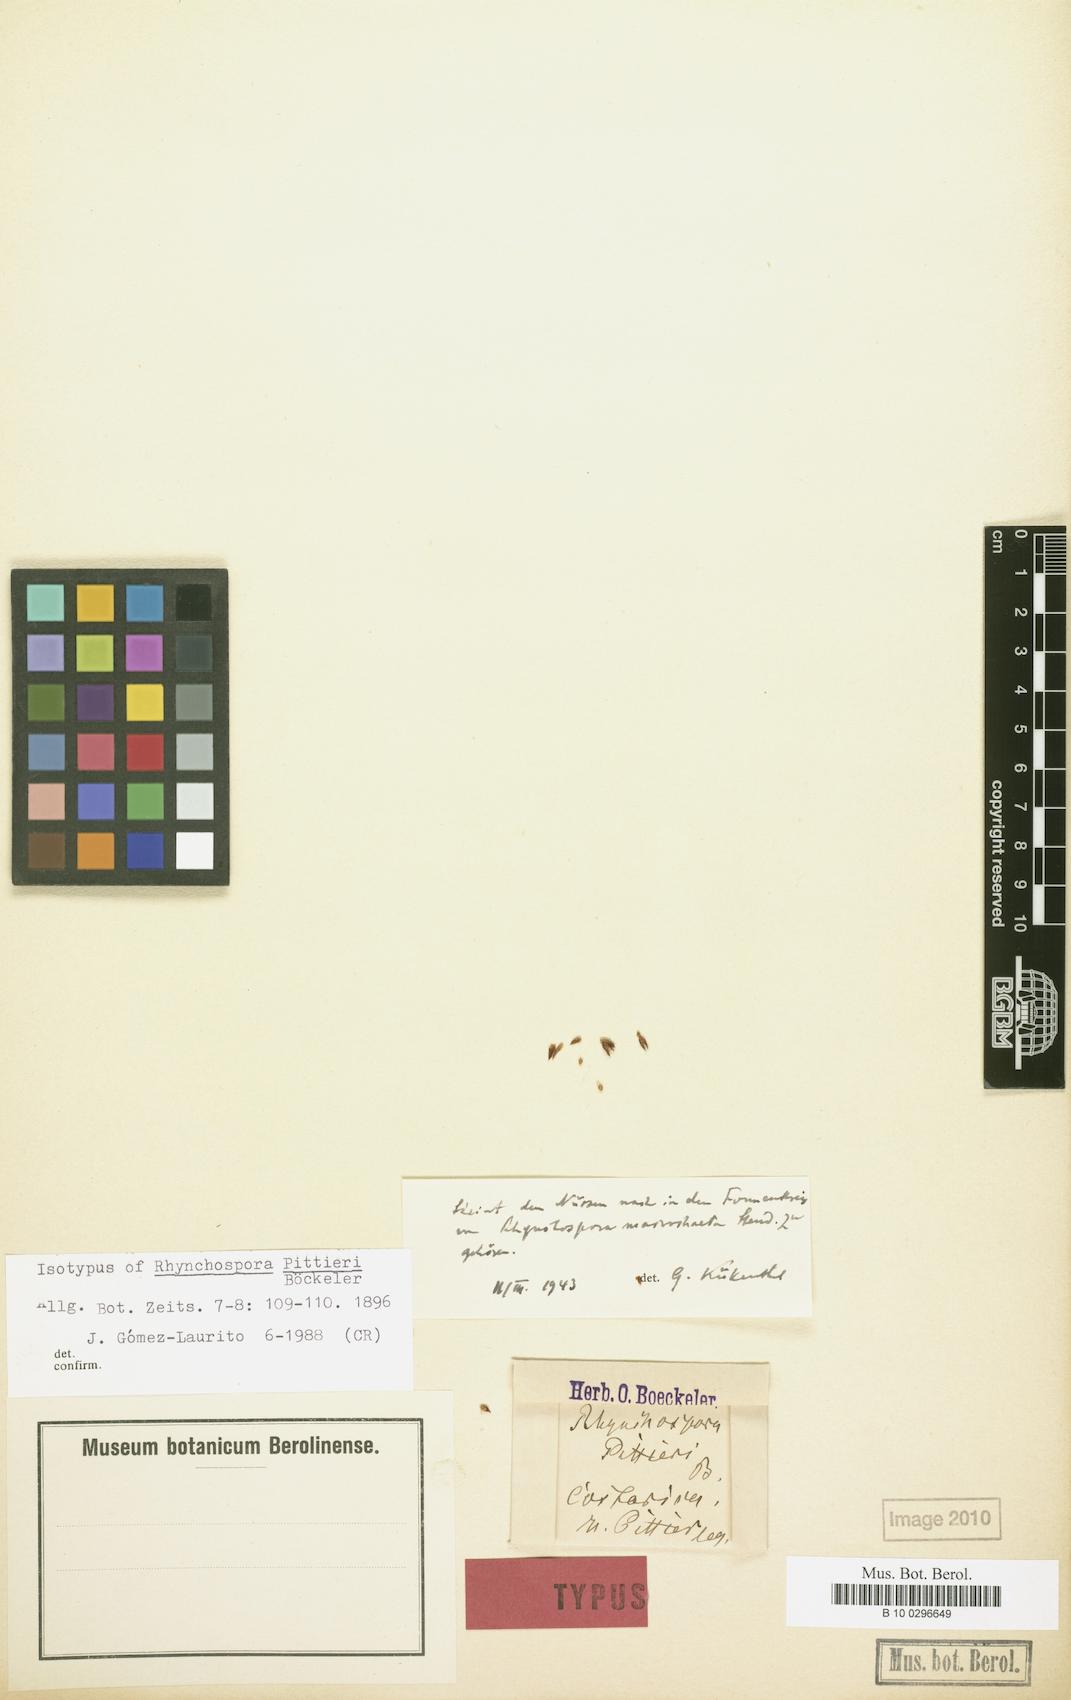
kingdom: Plantae
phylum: Tracheophyta
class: Liliopsida
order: Poales
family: Cyperaceae
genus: Rhynchospora
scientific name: Rhynchospora macrochaeta
